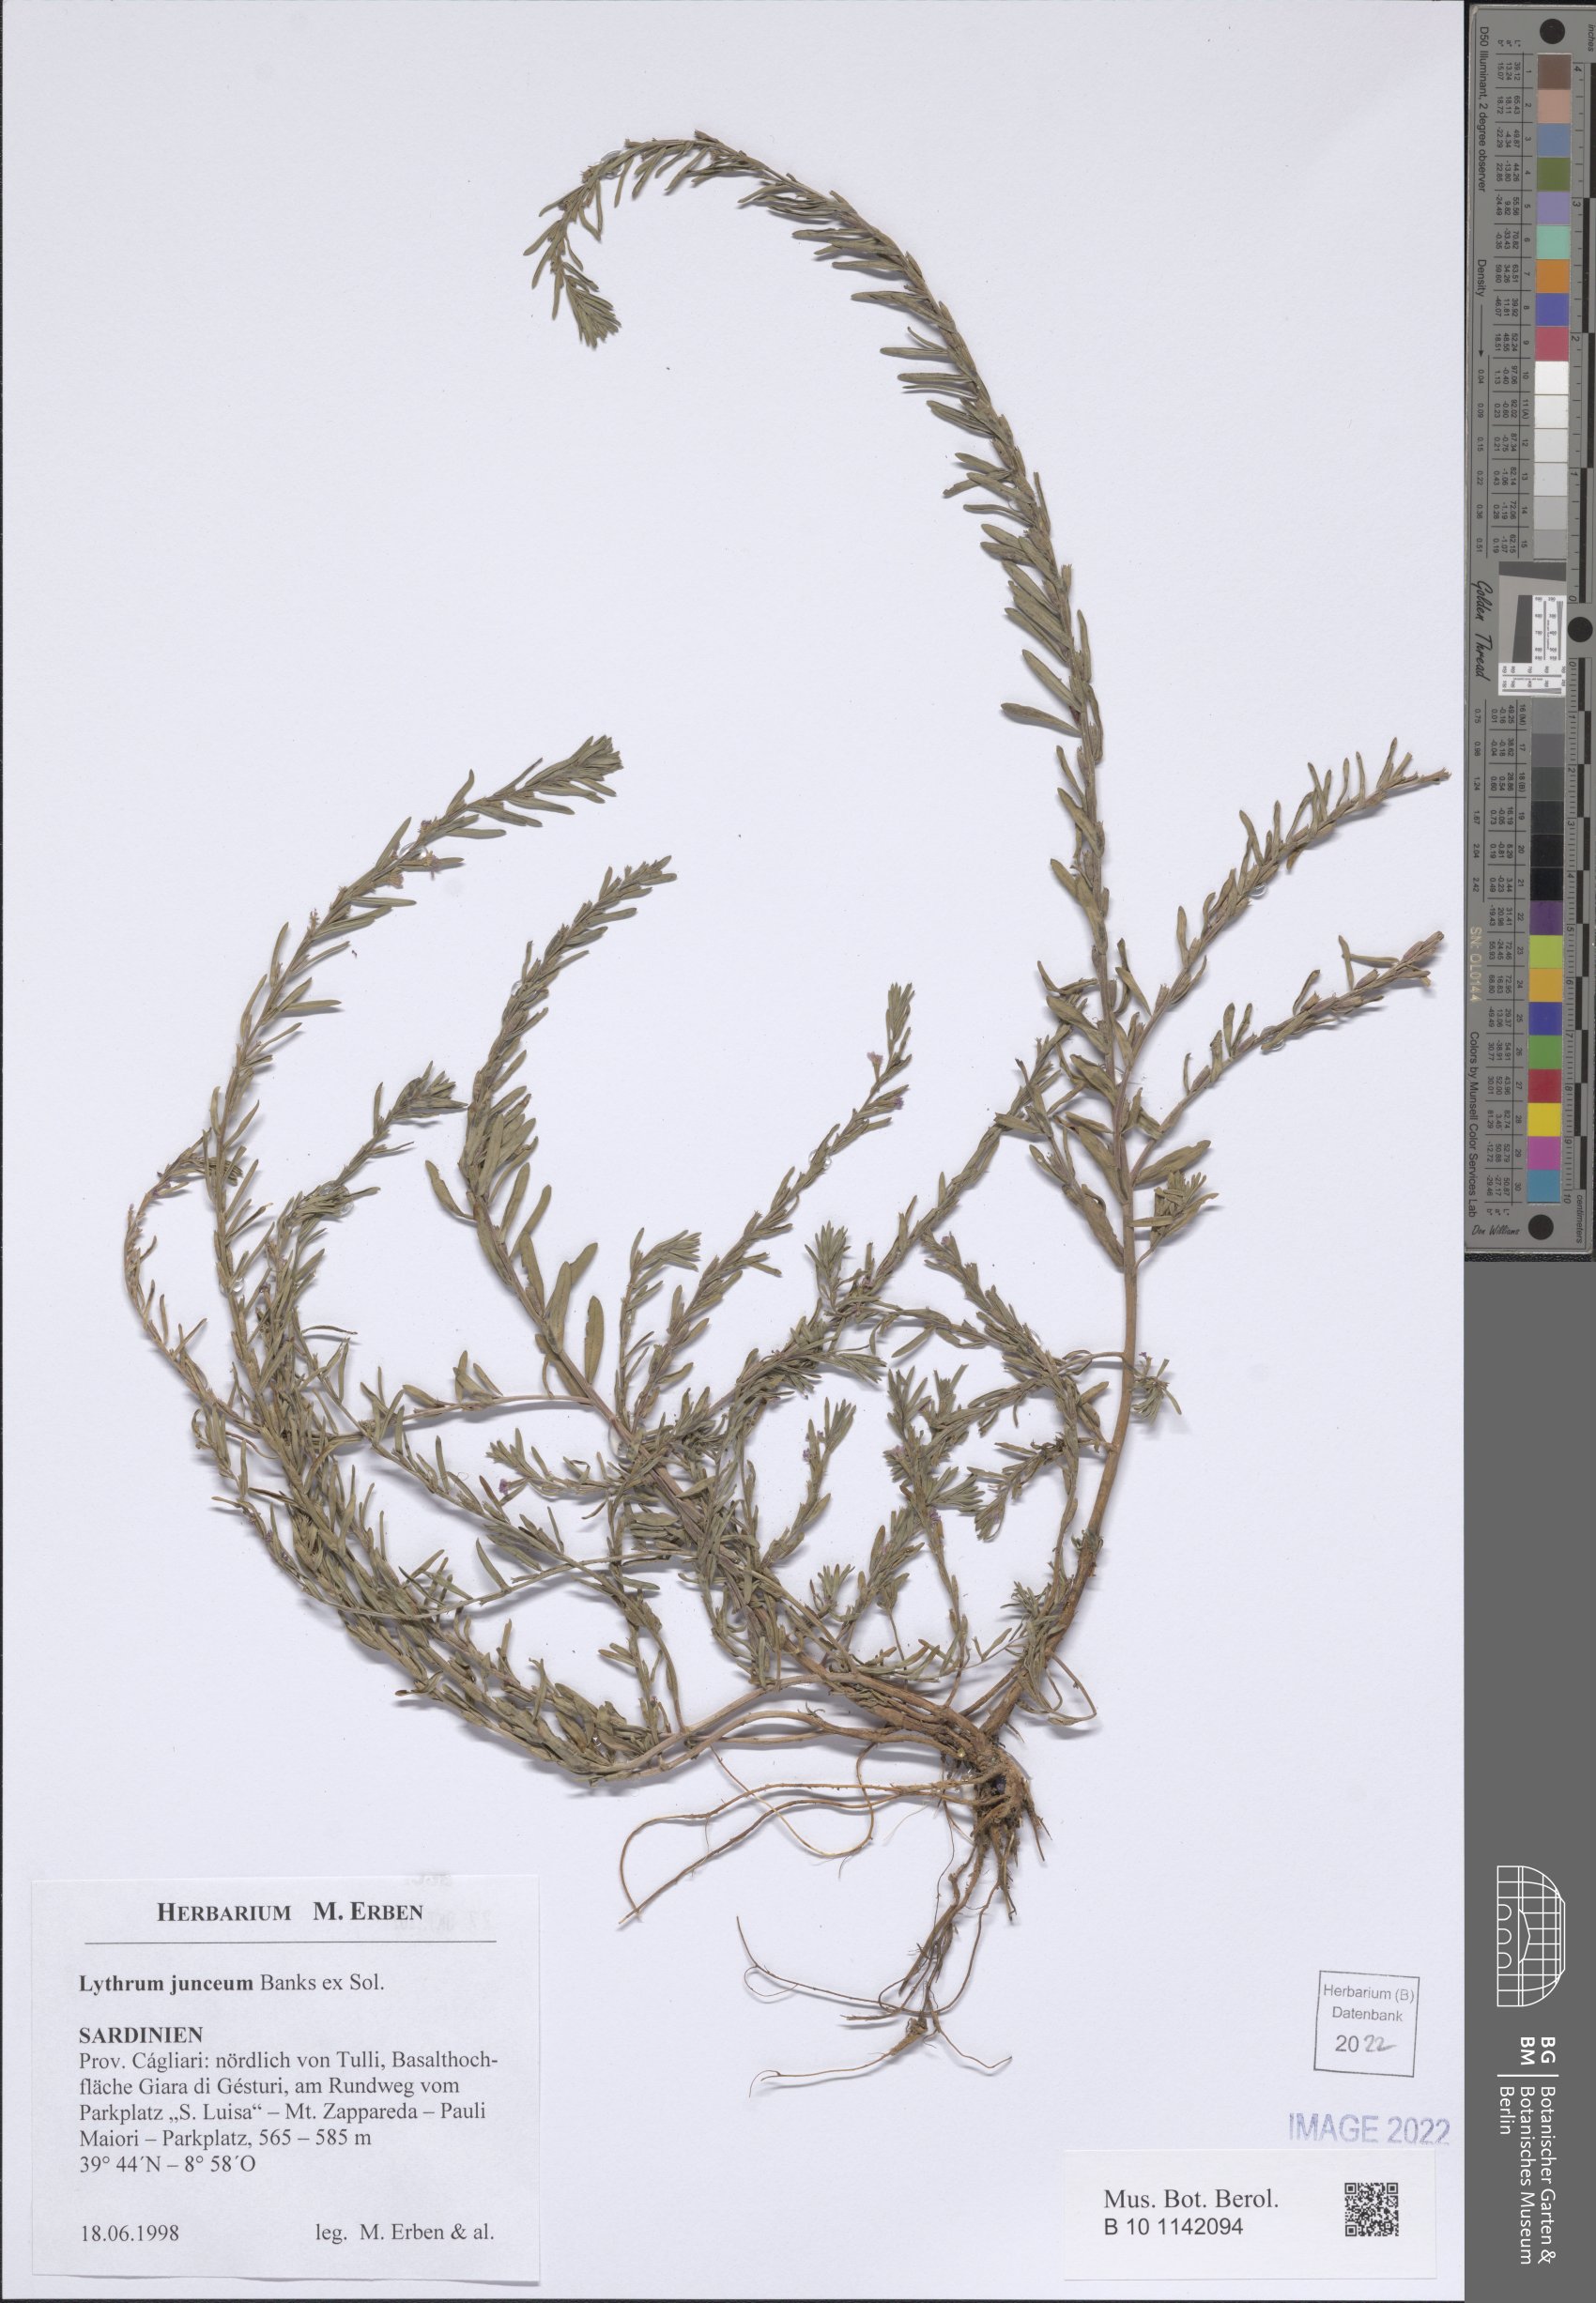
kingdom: Plantae
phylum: Tracheophyta
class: Magnoliopsida
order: Myrtales
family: Lythraceae
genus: Lythrum
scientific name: Lythrum junceum
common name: False grass-poly
